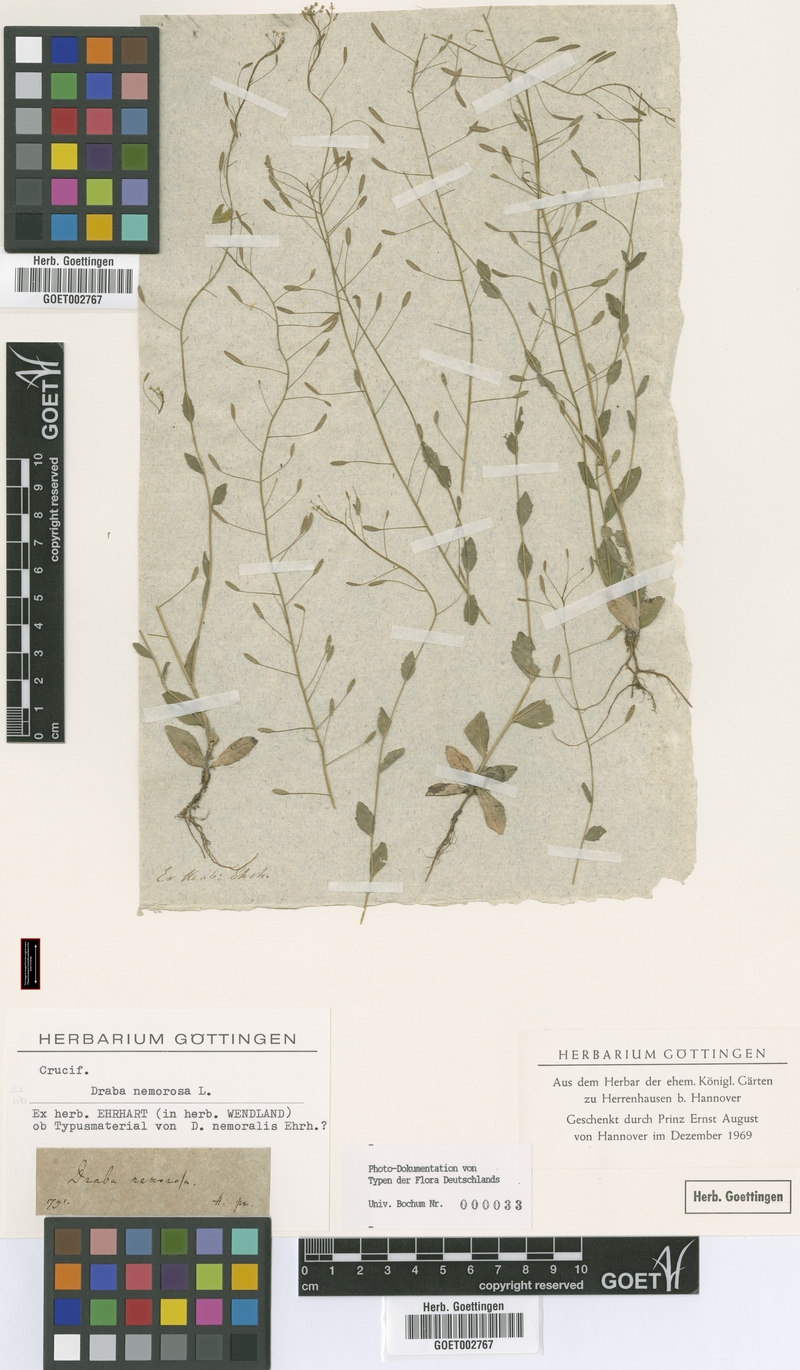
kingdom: Plantae
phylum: Tracheophyta
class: Magnoliopsida
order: Brassicales
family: Brassicaceae
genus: Draba
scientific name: Draba nemorosa
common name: Wood whitlow-grass
